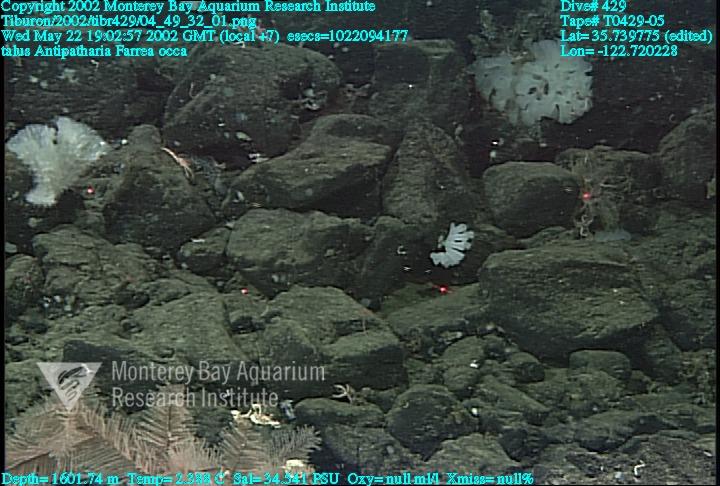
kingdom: Animalia
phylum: Porifera
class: Hexactinellida
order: Sceptrulophora
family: Farreidae
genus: Farrea
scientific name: Farrea occa
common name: Reversed glass sponge
